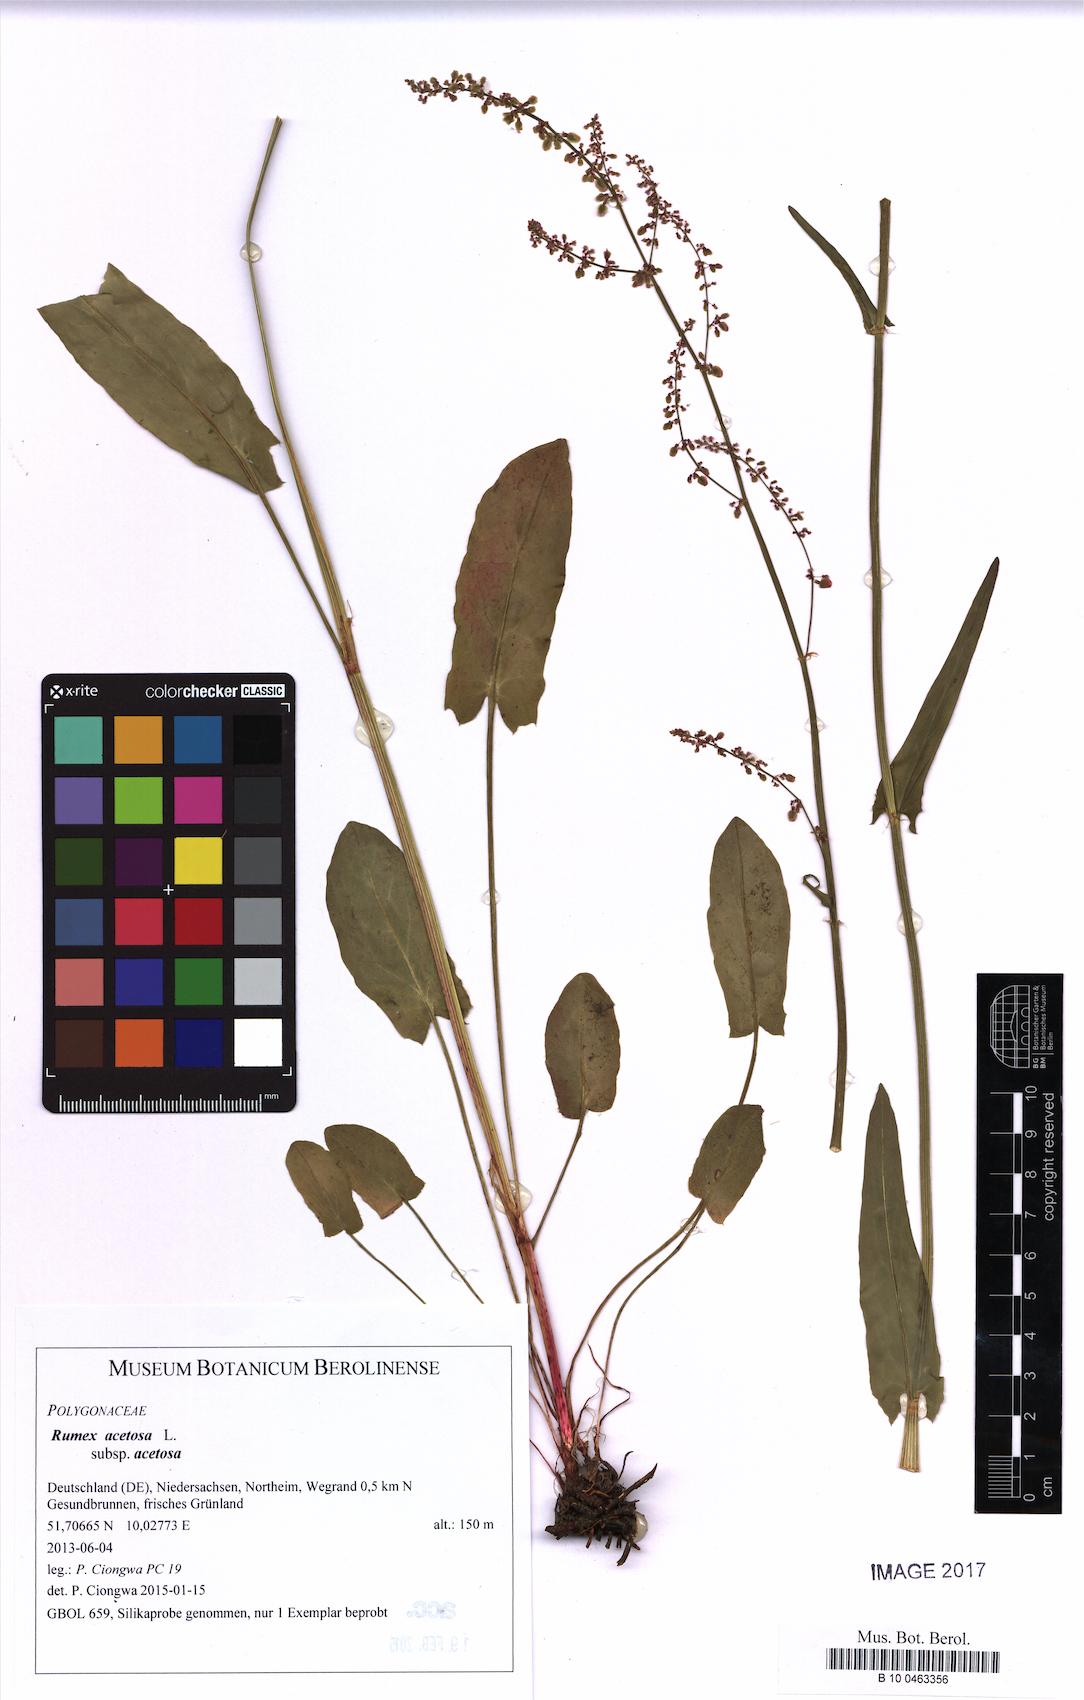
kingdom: Plantae
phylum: Tracheophyta
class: Magnoliopsida
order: Caryophyllales
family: Polygonaceae
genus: Rumex
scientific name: Rumex acetosa
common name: Garden sorrel
